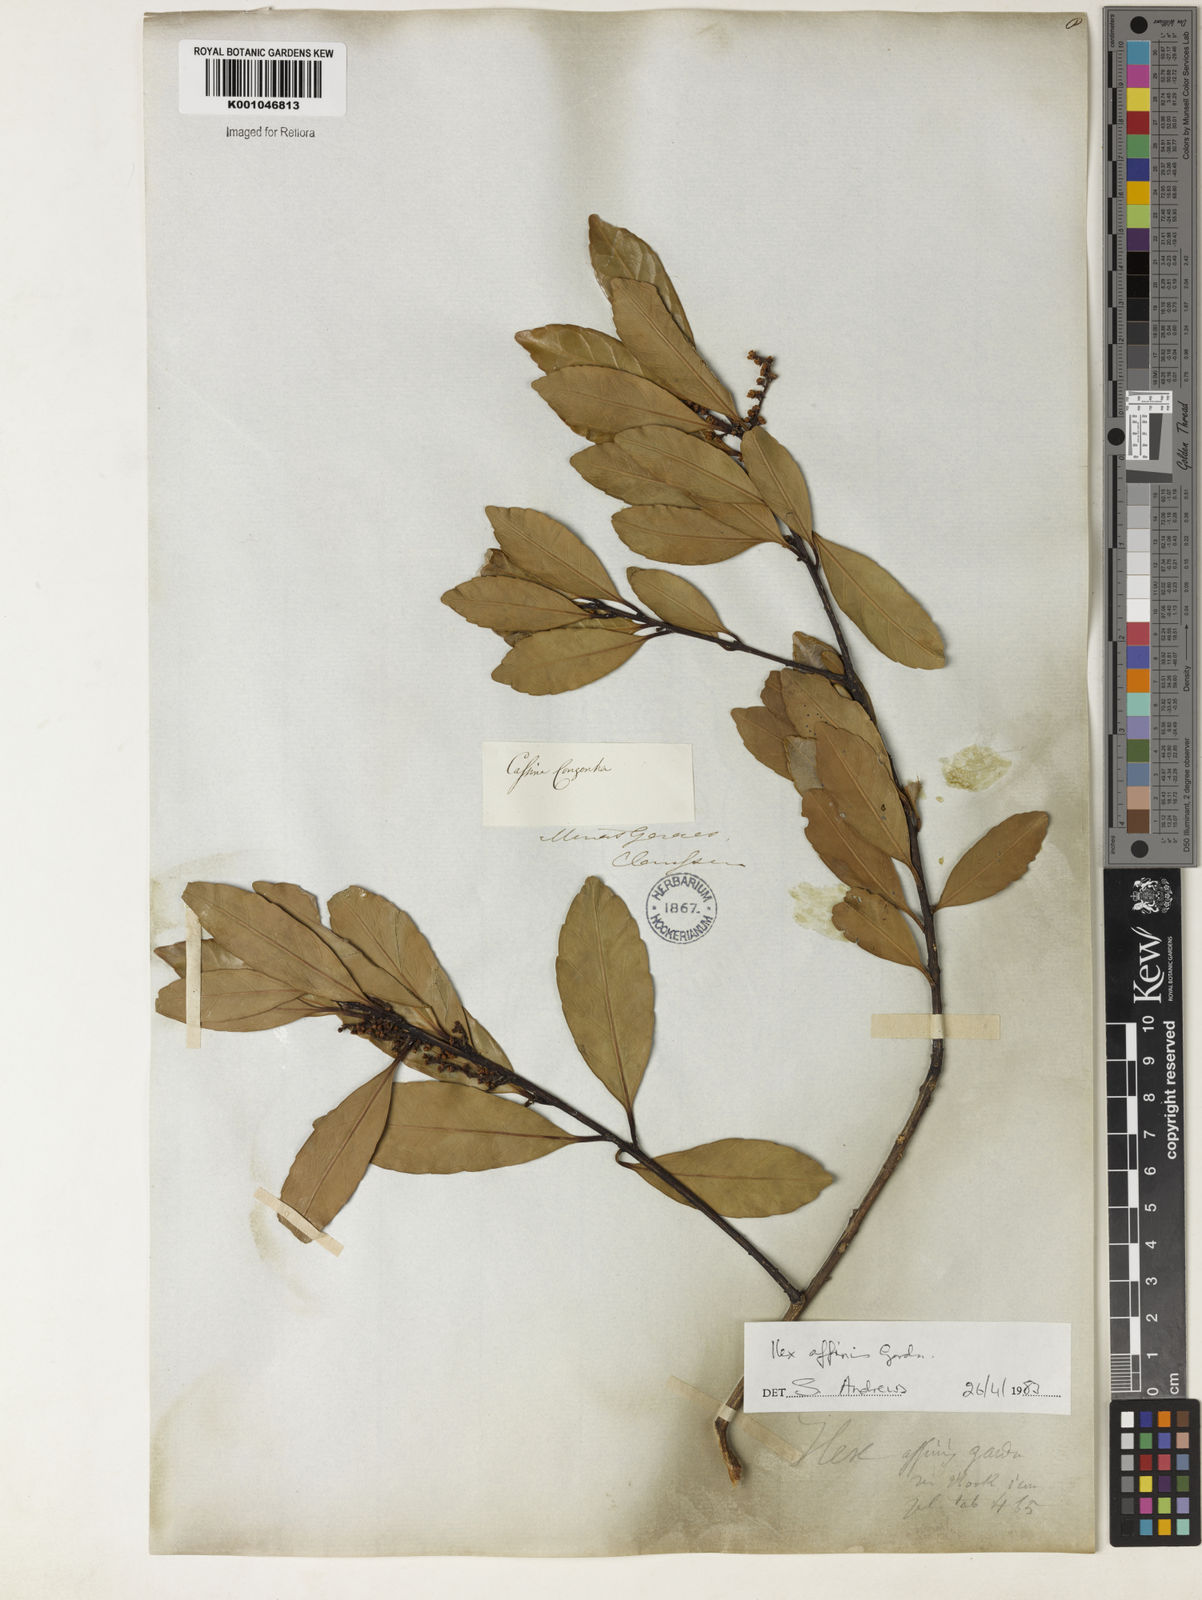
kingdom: Plantae
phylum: Tracheophyta
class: Magnoliopsida
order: Aquifoliales
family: Aquifoliaceae
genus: Ilex
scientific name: Ilex affinis
